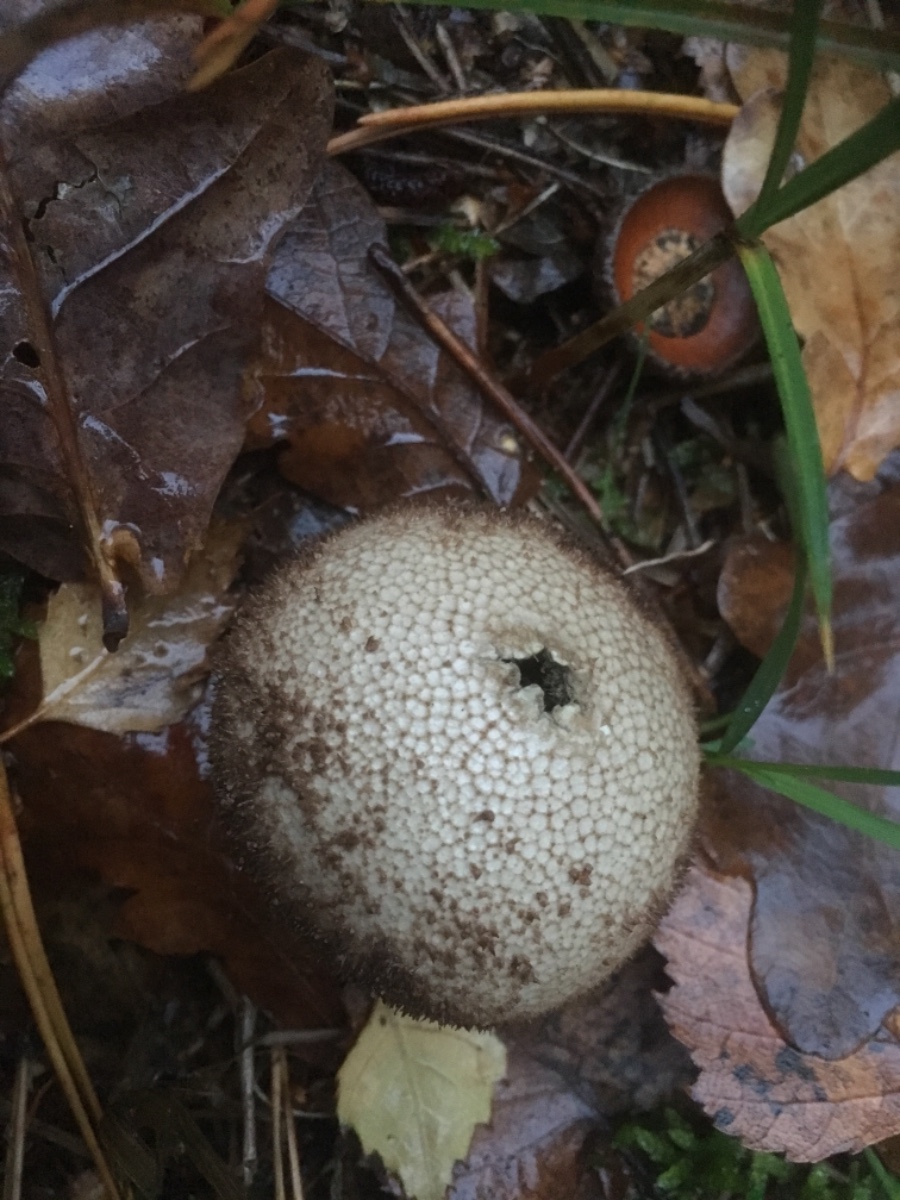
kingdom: Fungi
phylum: Basidiomycota
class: Agaricomycetes
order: Agaricales
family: Lycoperdaceae
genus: Lycoperdon
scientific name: Lycoperdon nigrescens
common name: sortagtig støvbold
